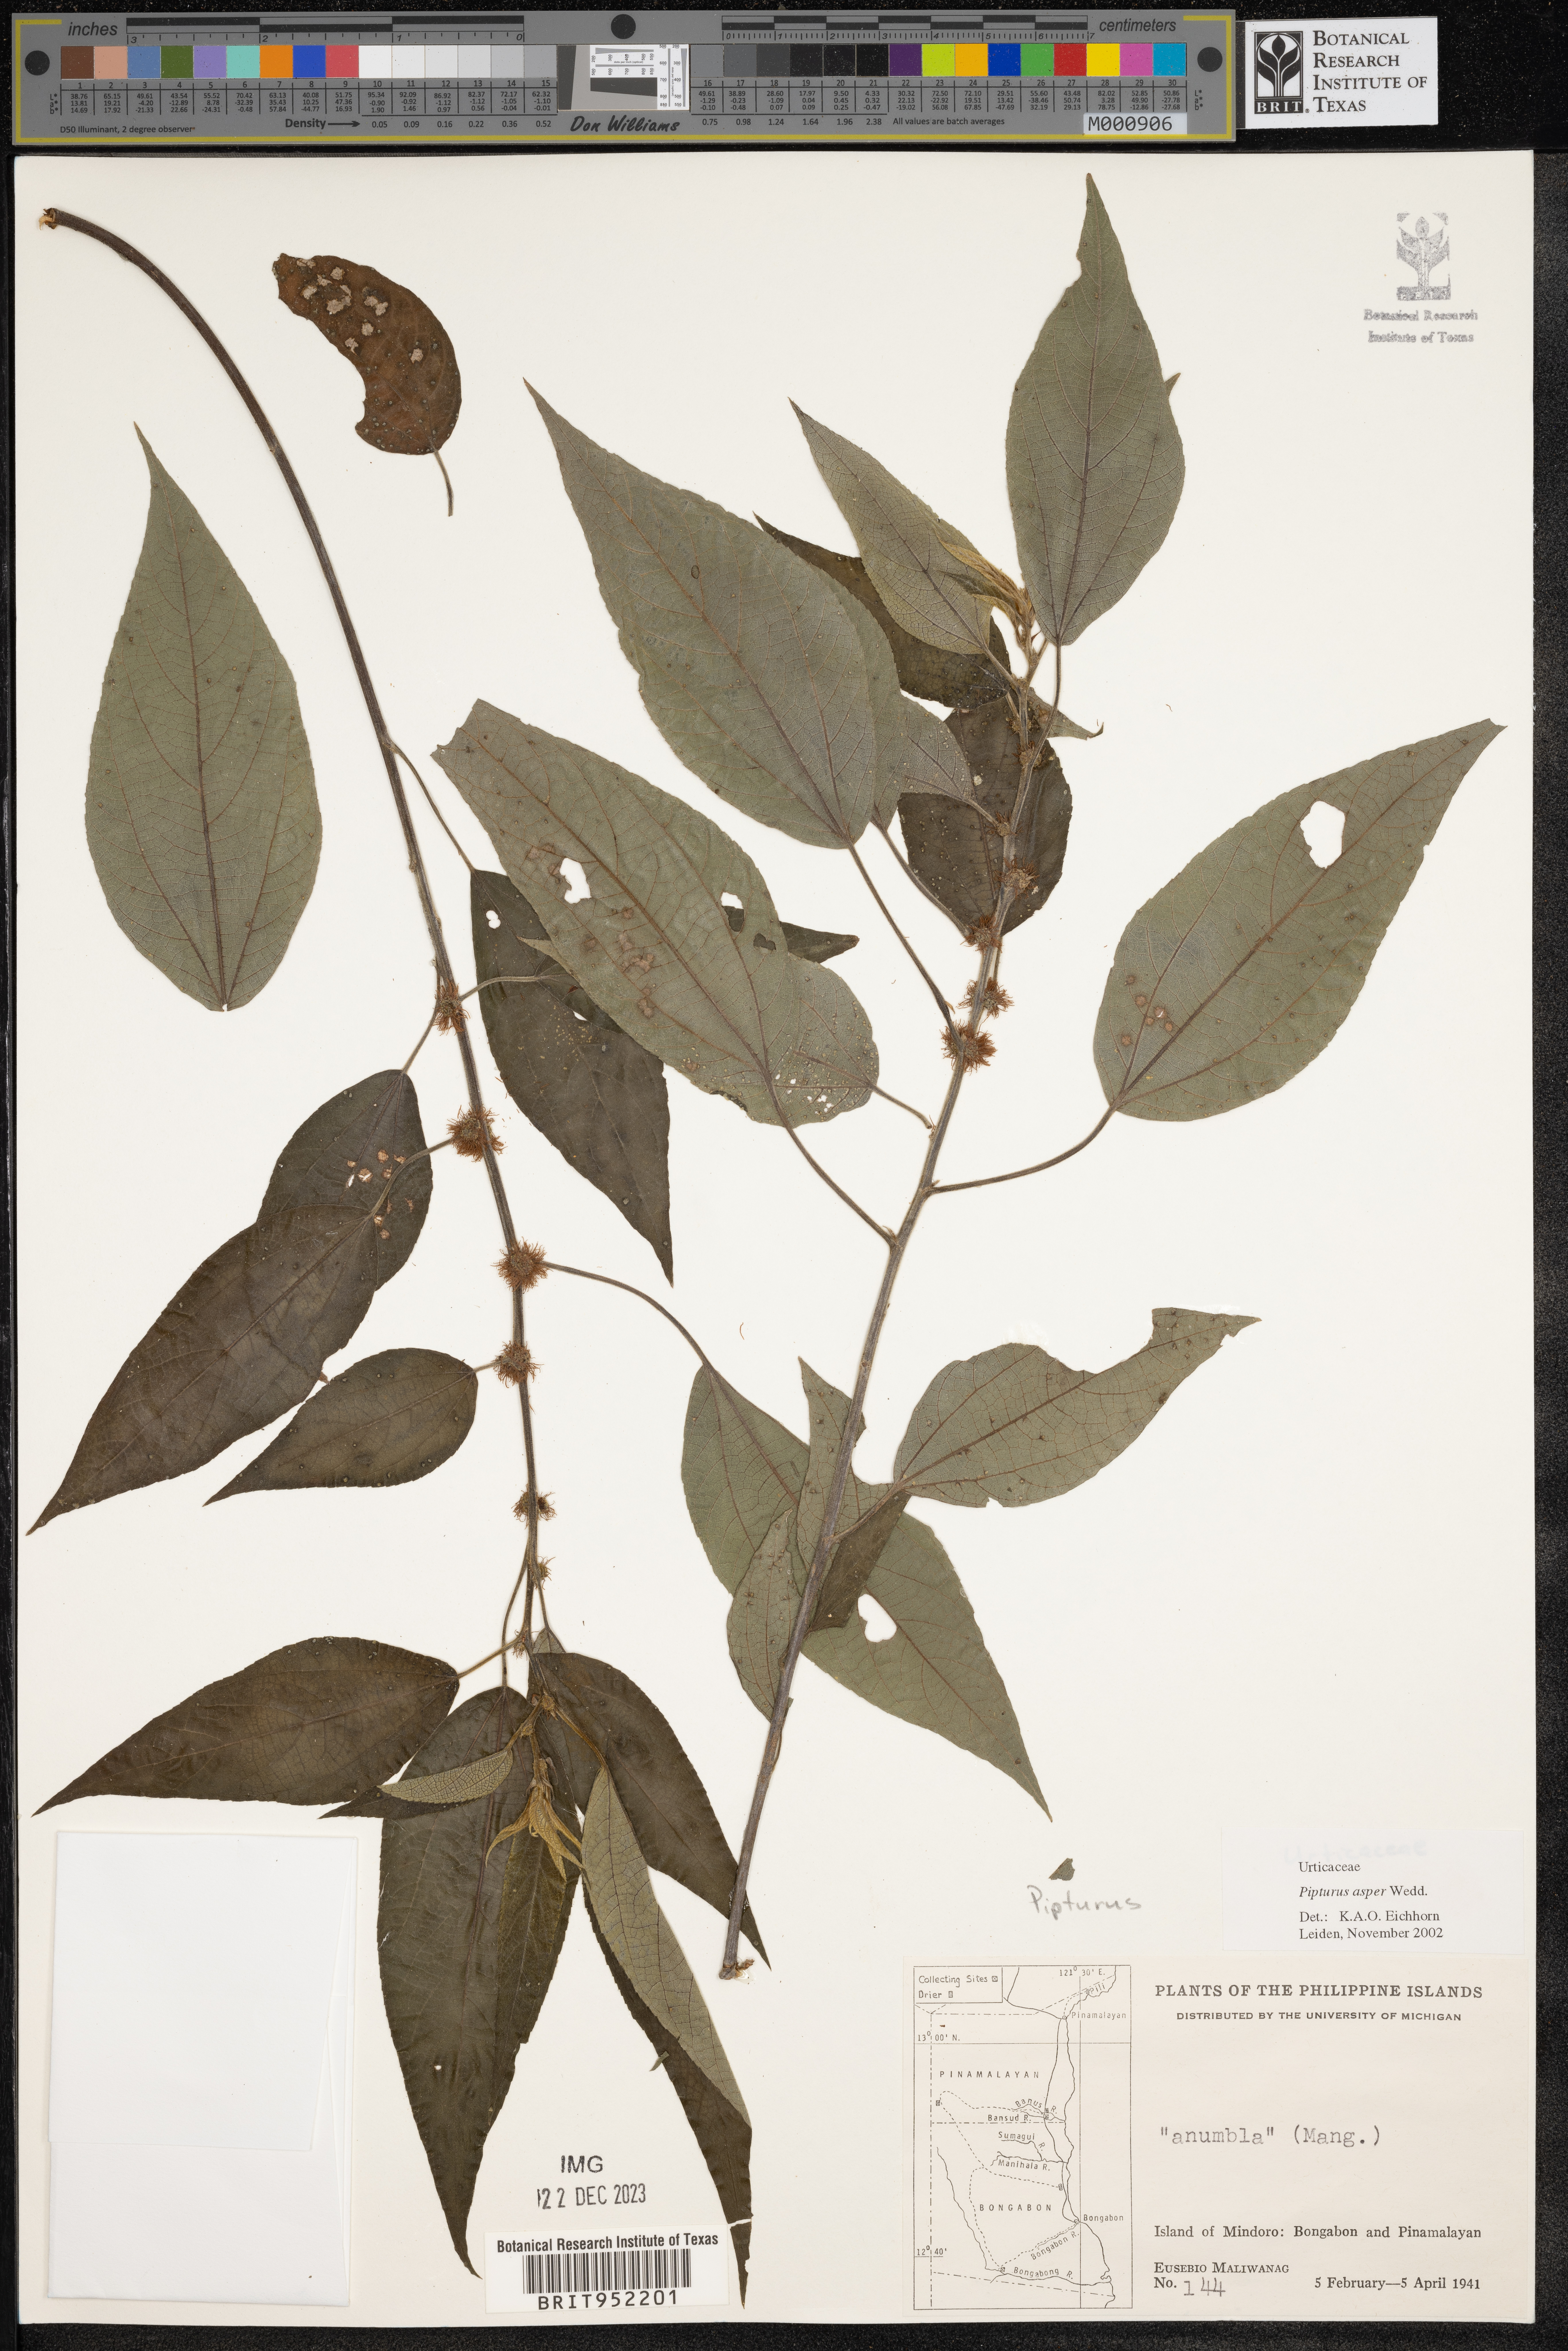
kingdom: Plantae
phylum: Tracheophyta
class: Magnoliopsida
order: Rosales
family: Urticaceae
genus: Pipturus
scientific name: Pipturus argenteus
